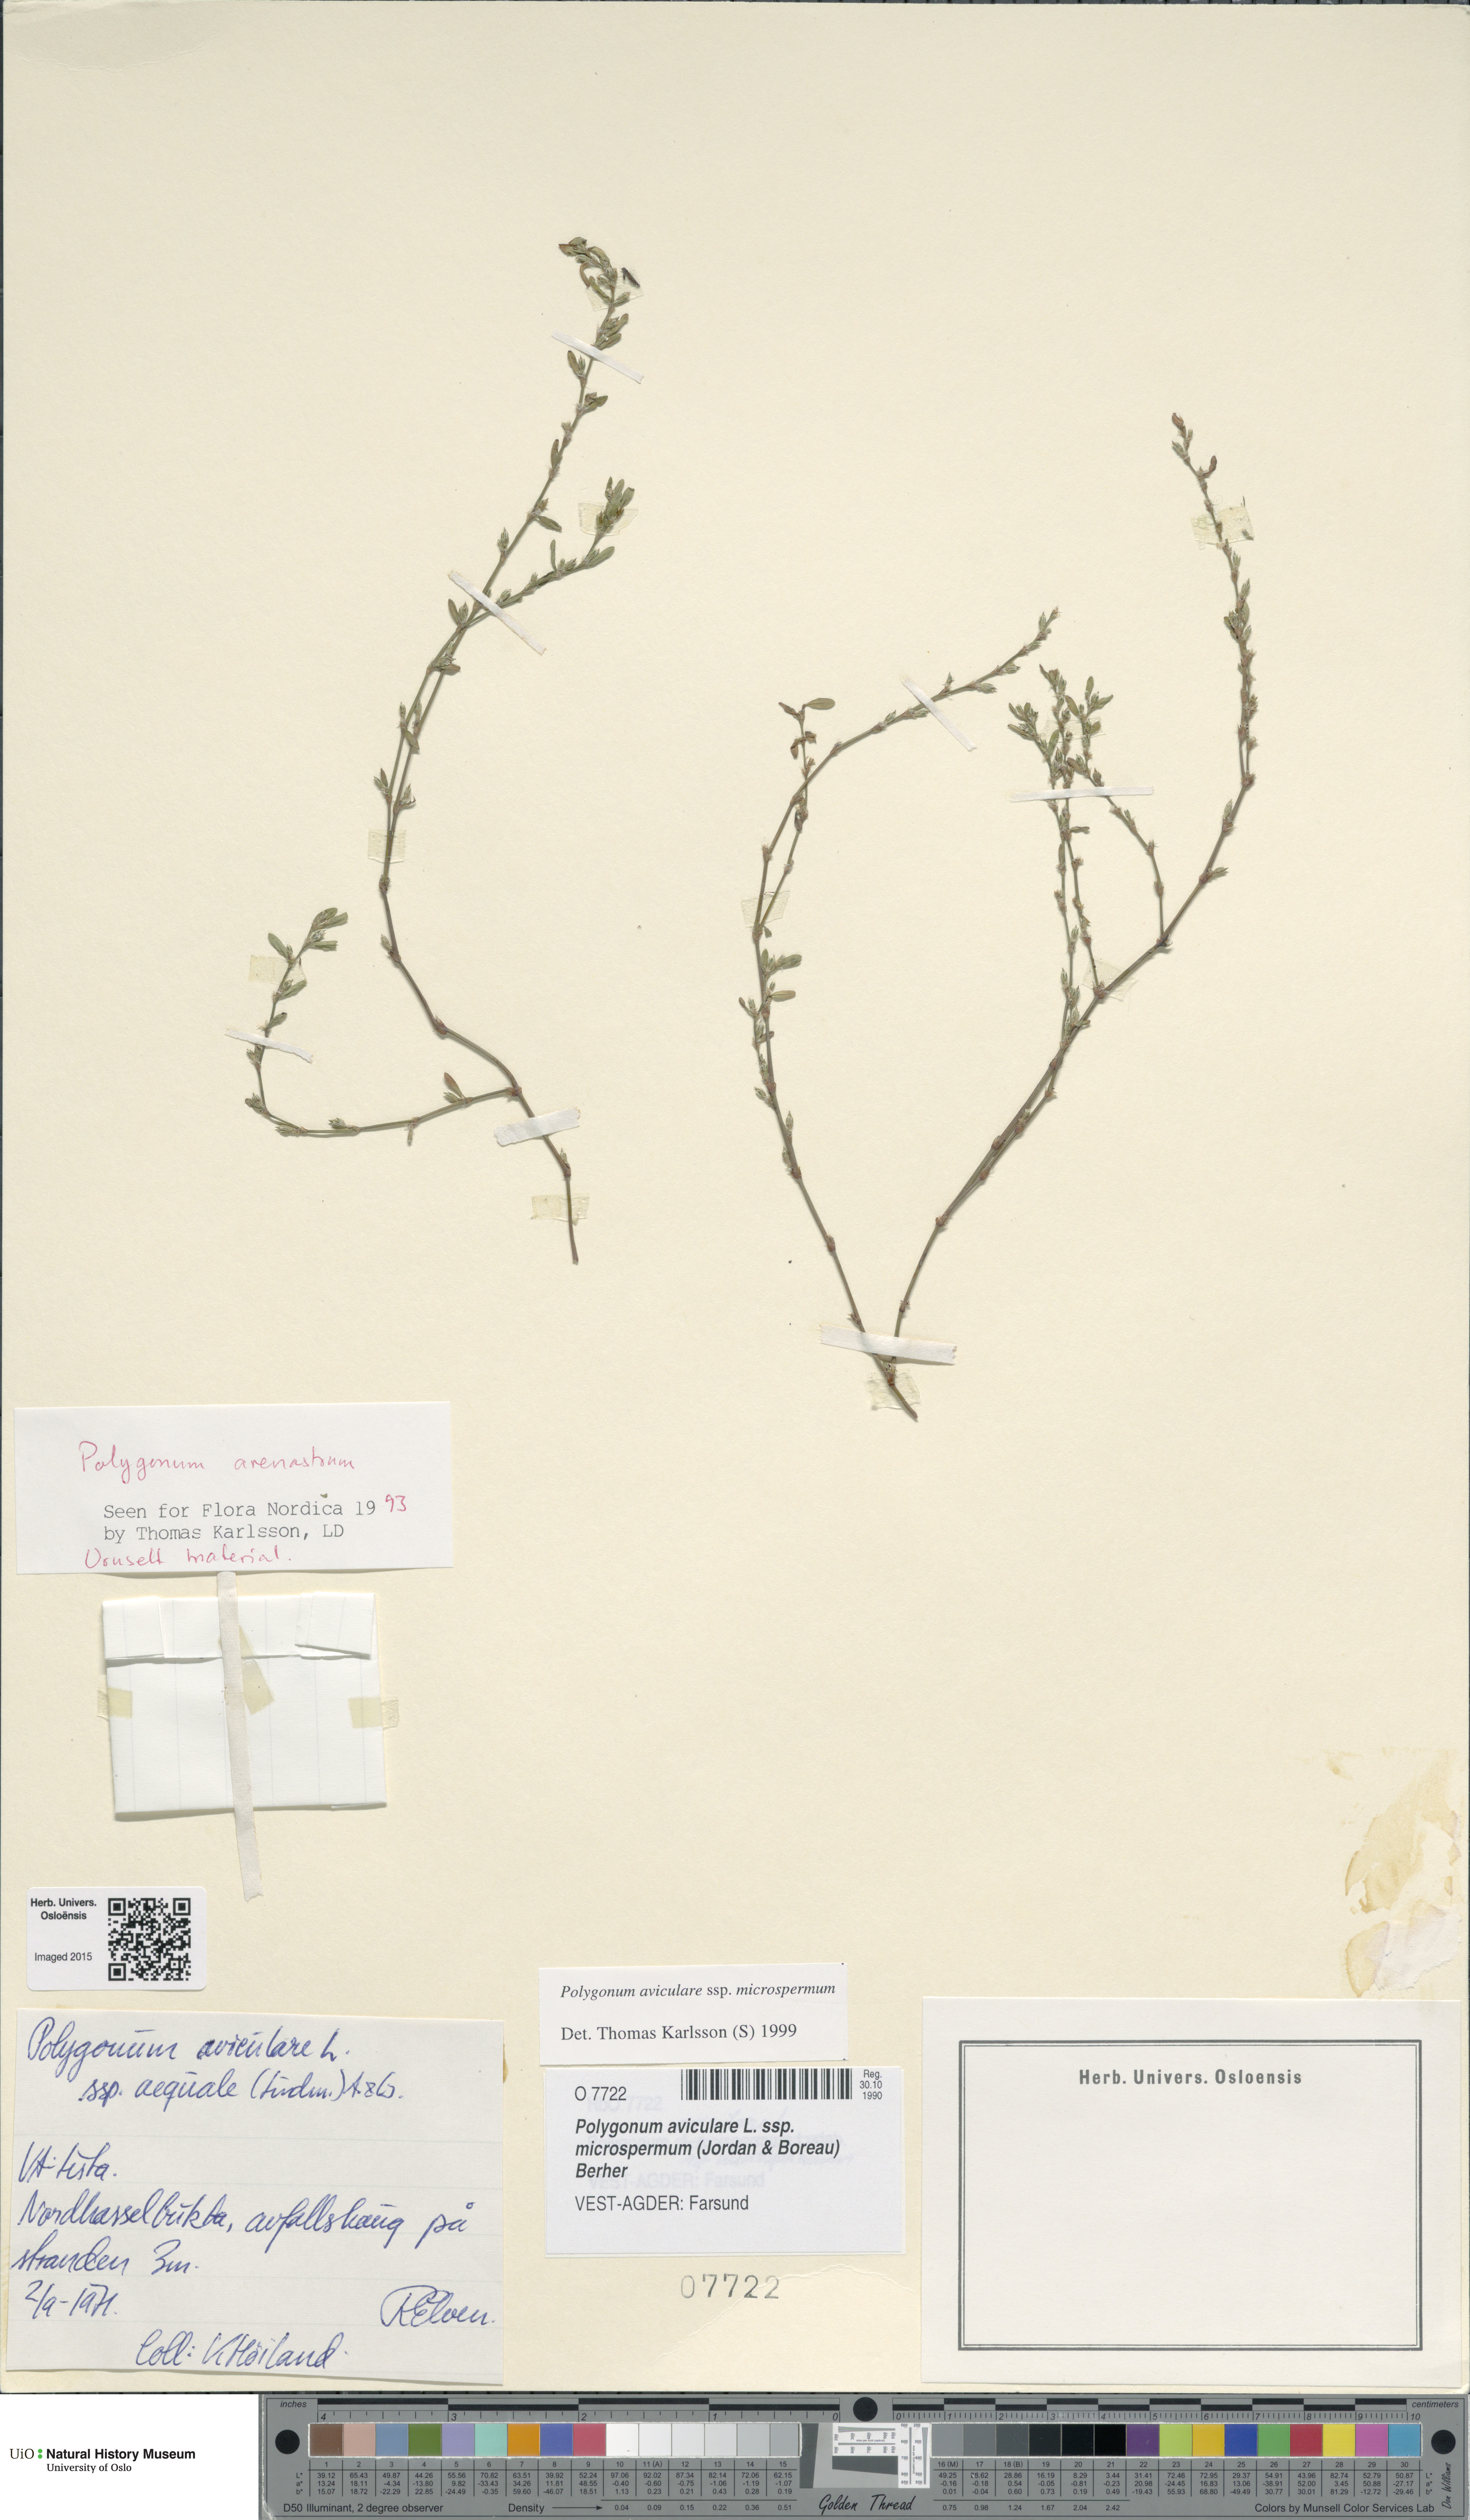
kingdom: Plantae
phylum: Tracheophyta
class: Magnoliopsida
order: Caryophyllales
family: Polygonaceae
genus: Polygonum
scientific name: Polygonum arenastrum
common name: Equal-leaved knotgrass
